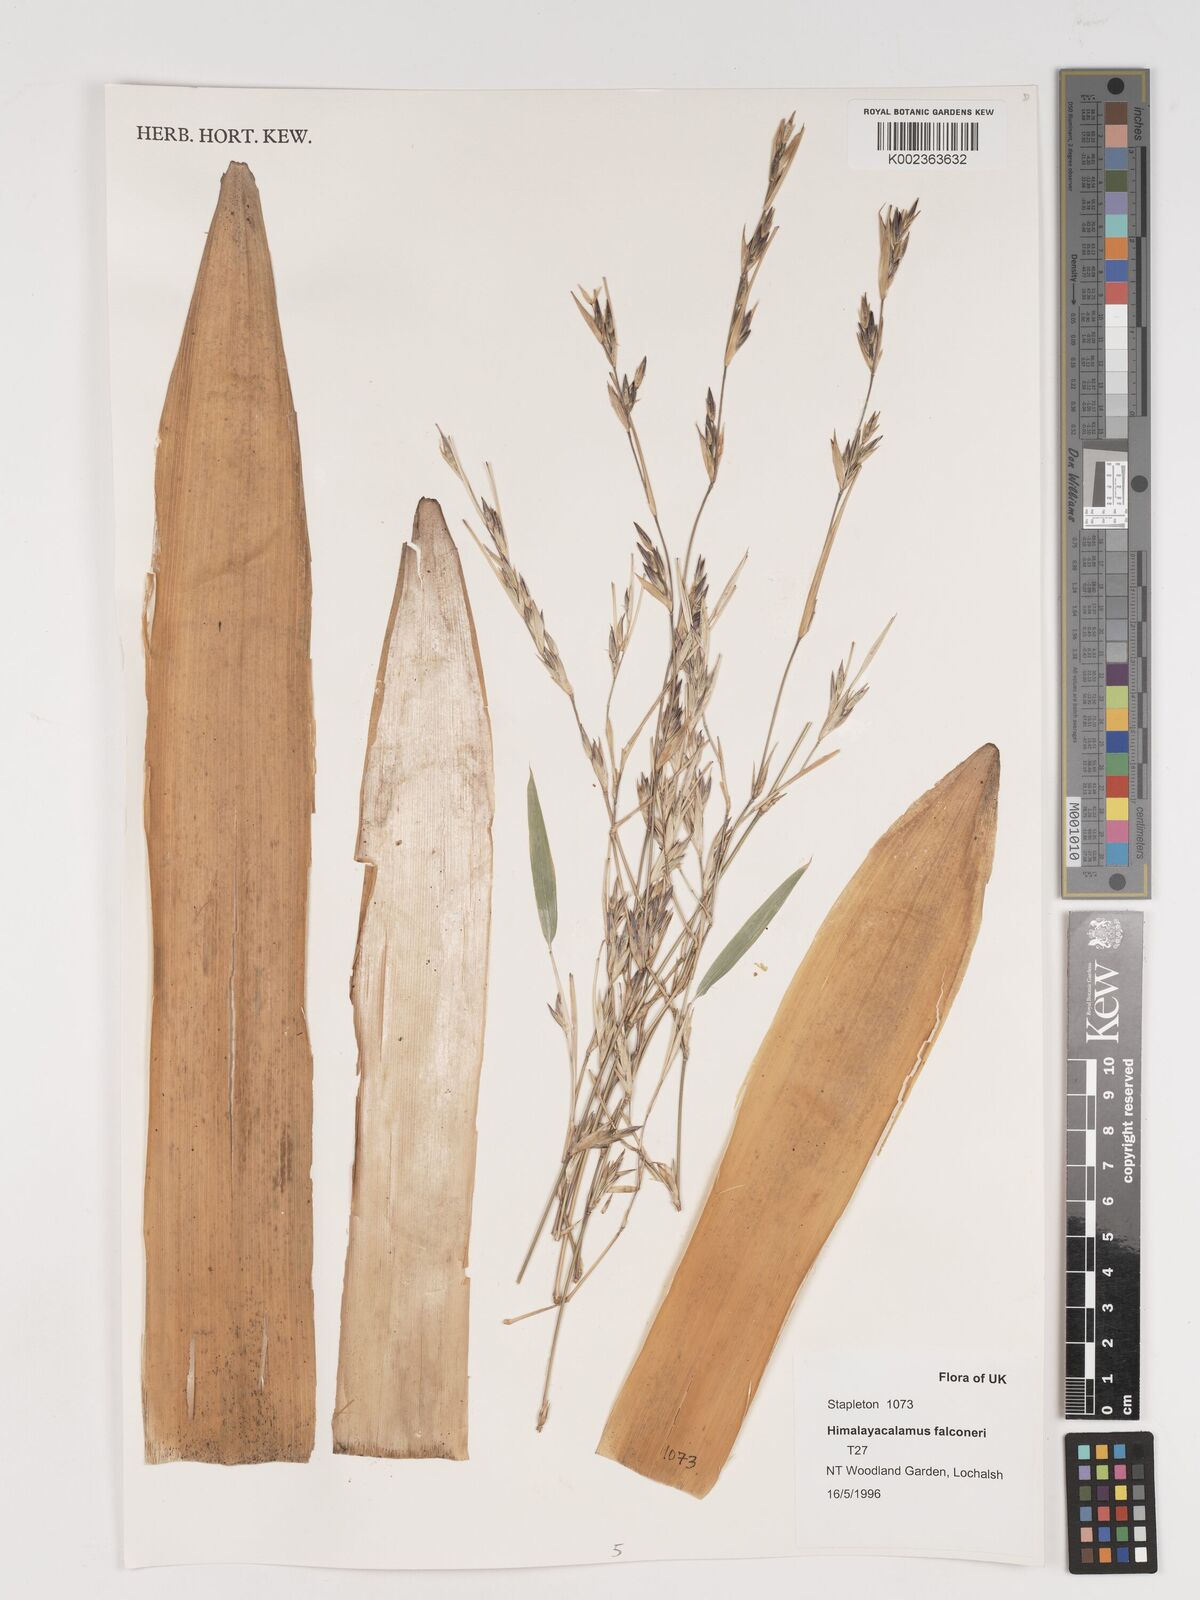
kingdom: Plantae
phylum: Tracheophyta
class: Liliopsida
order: Poales
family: Poaceae
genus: Himalayacalamus
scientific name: Himalayacalamus falconeri
